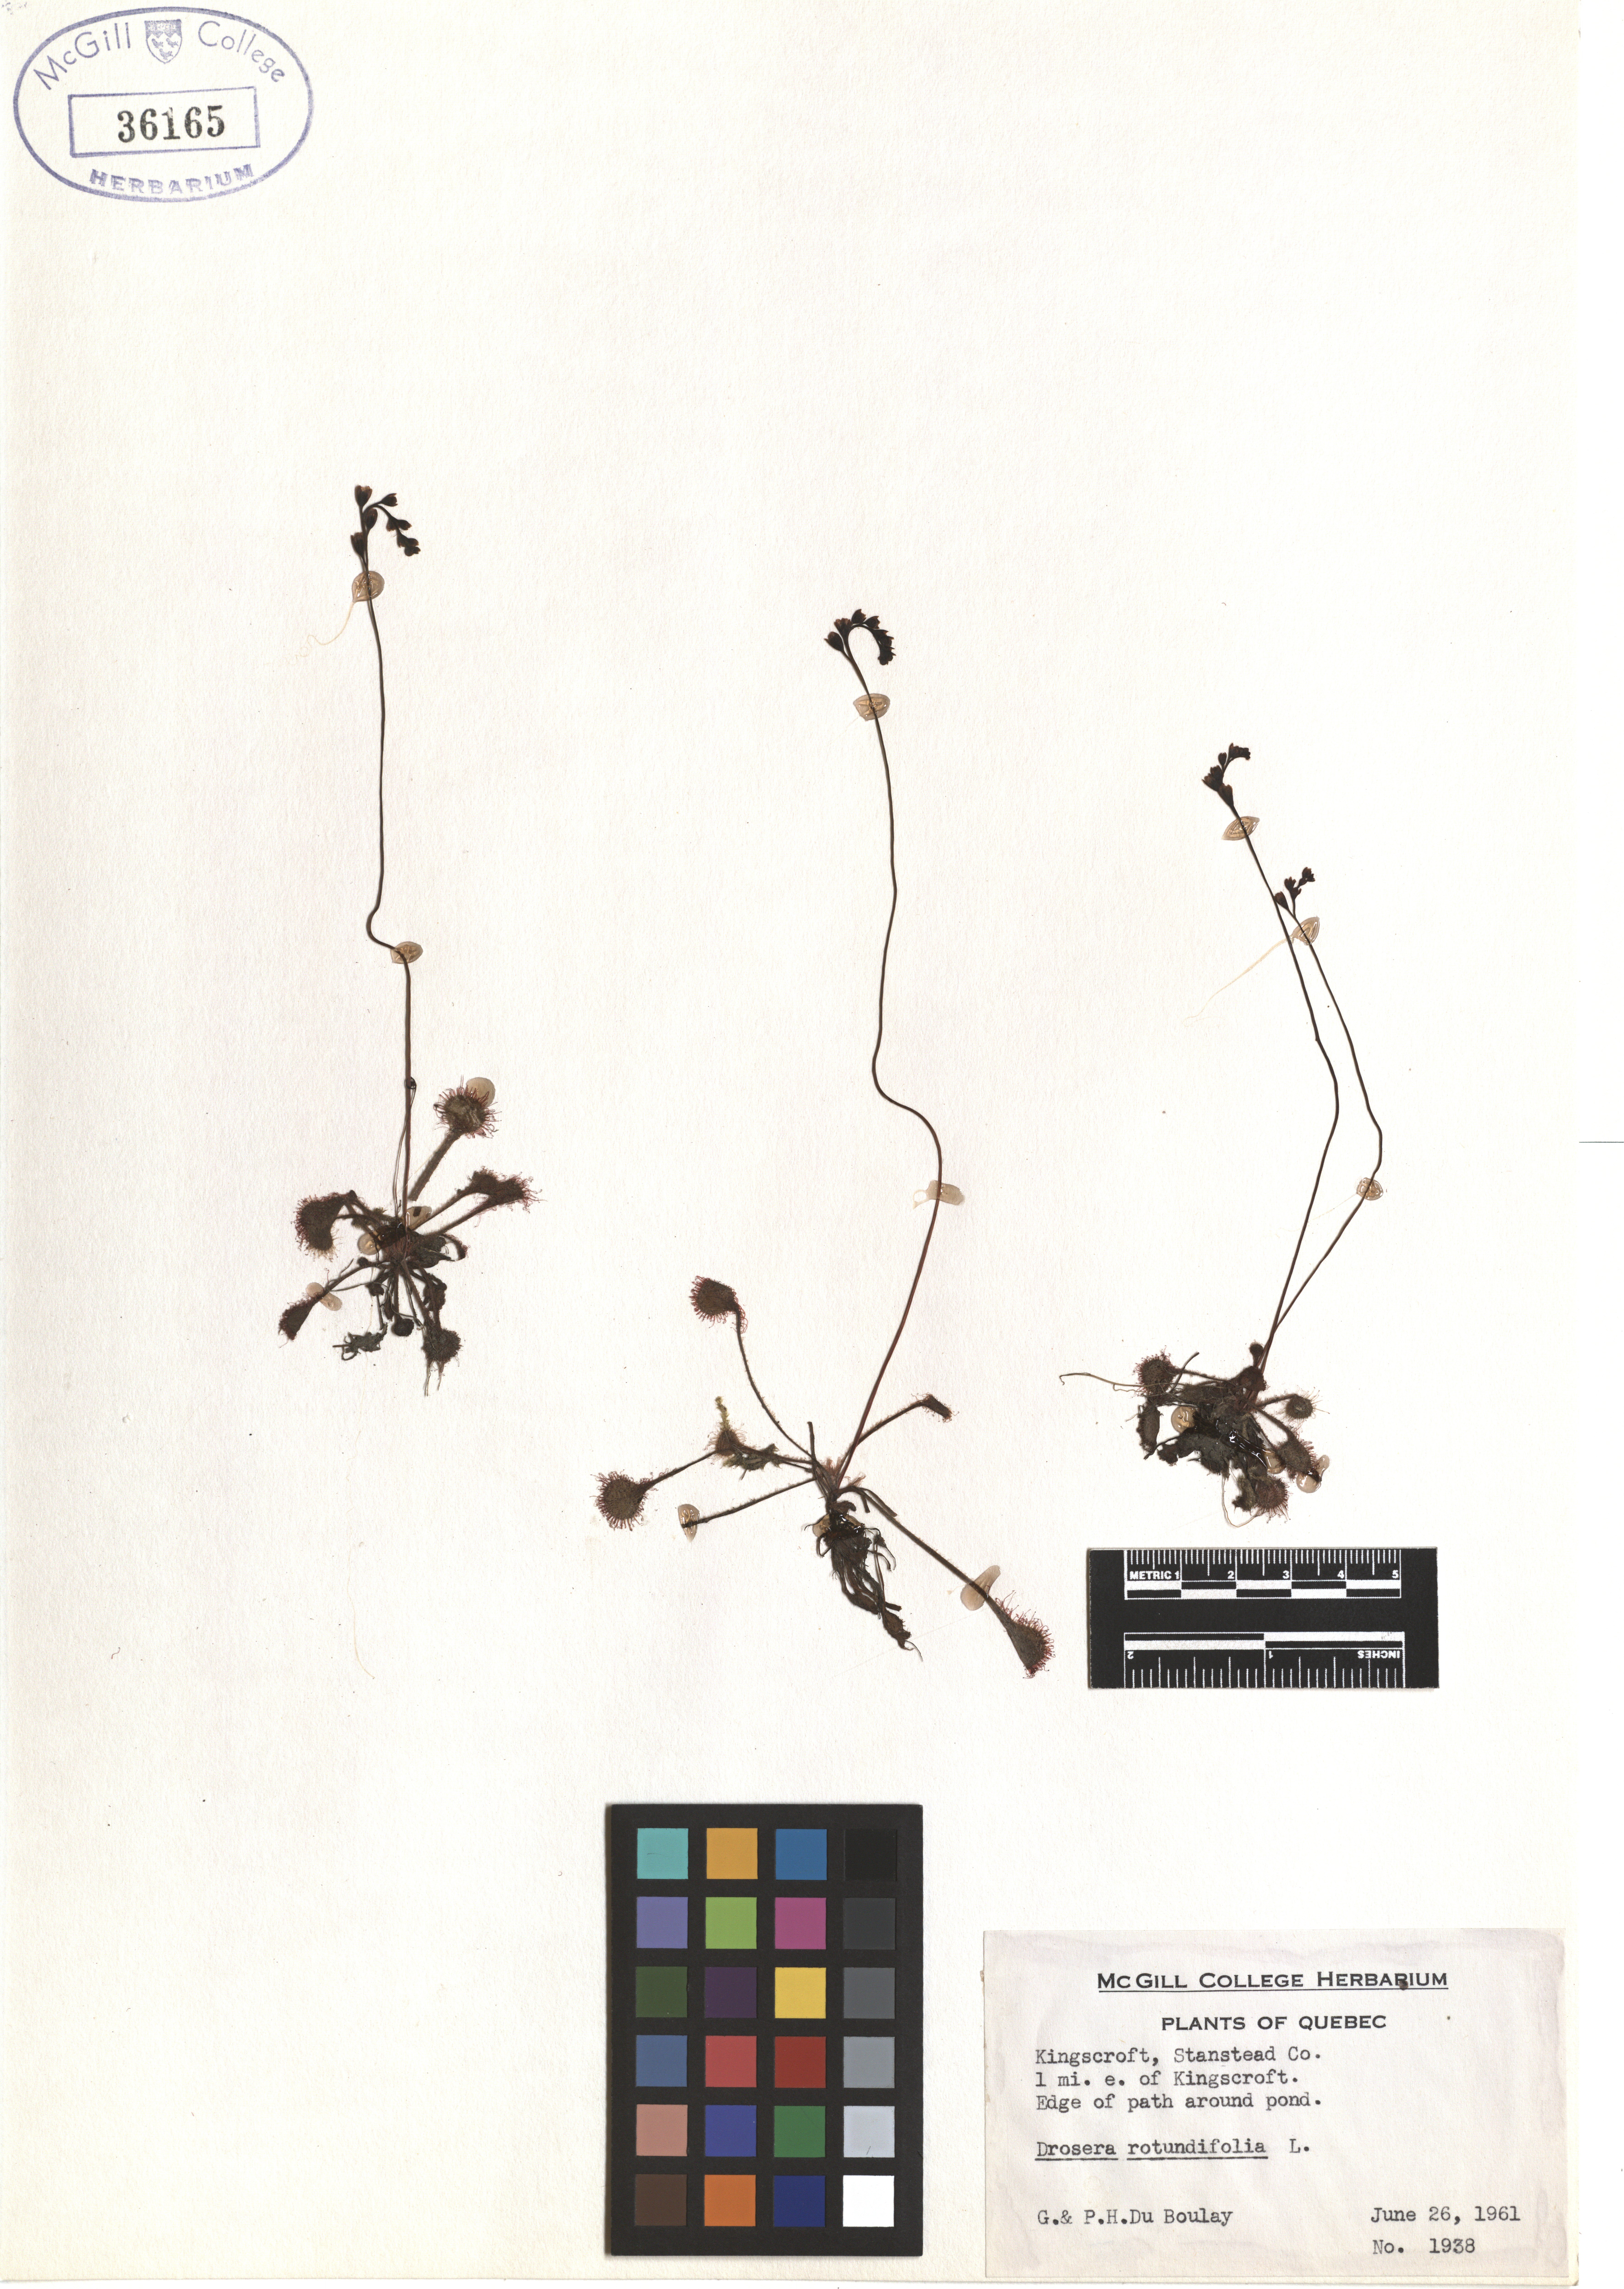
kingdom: Plantae
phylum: Tracheophyta
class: Magnoliopsida
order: Caryophyllales
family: Droseraceae
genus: Drosera
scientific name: Drosera rotundifolia
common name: Round-leaved sundew
